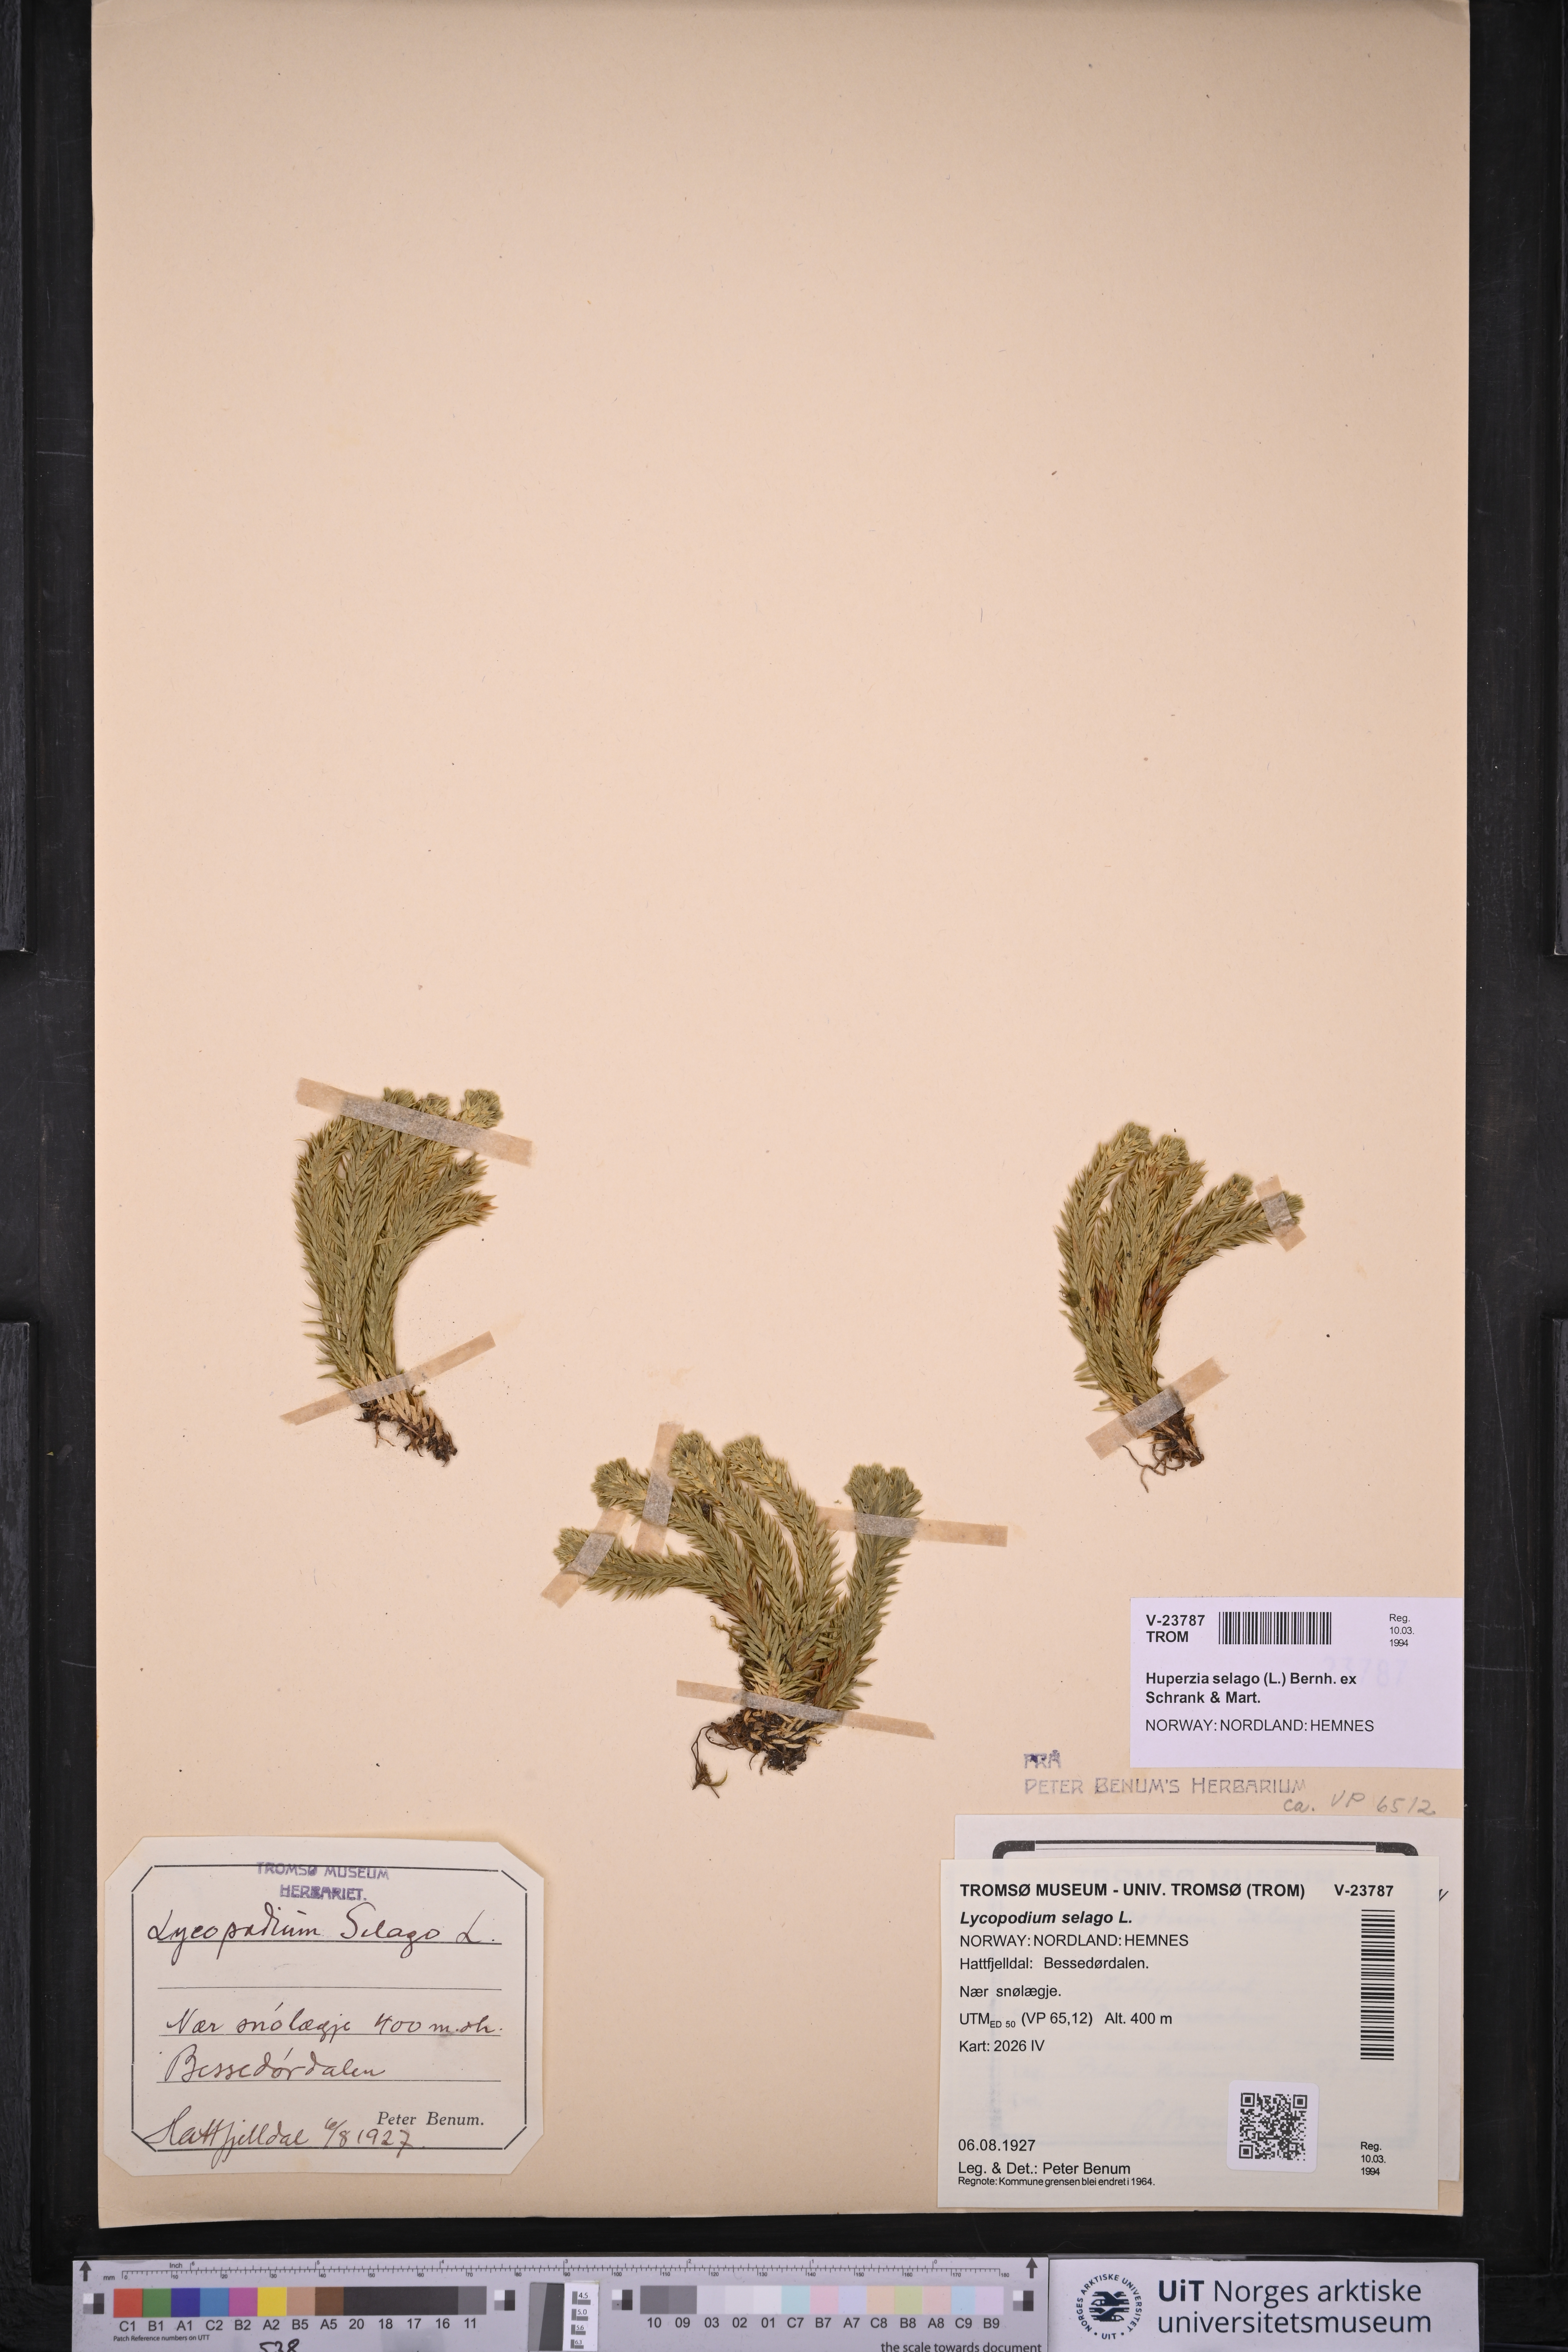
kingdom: Plantae
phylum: Tracheophyta
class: Lycopodiopsida
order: Lycopodiales
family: Lycopodiaceae
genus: Huperzia
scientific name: Huperzia selago
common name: Northern firmoss
